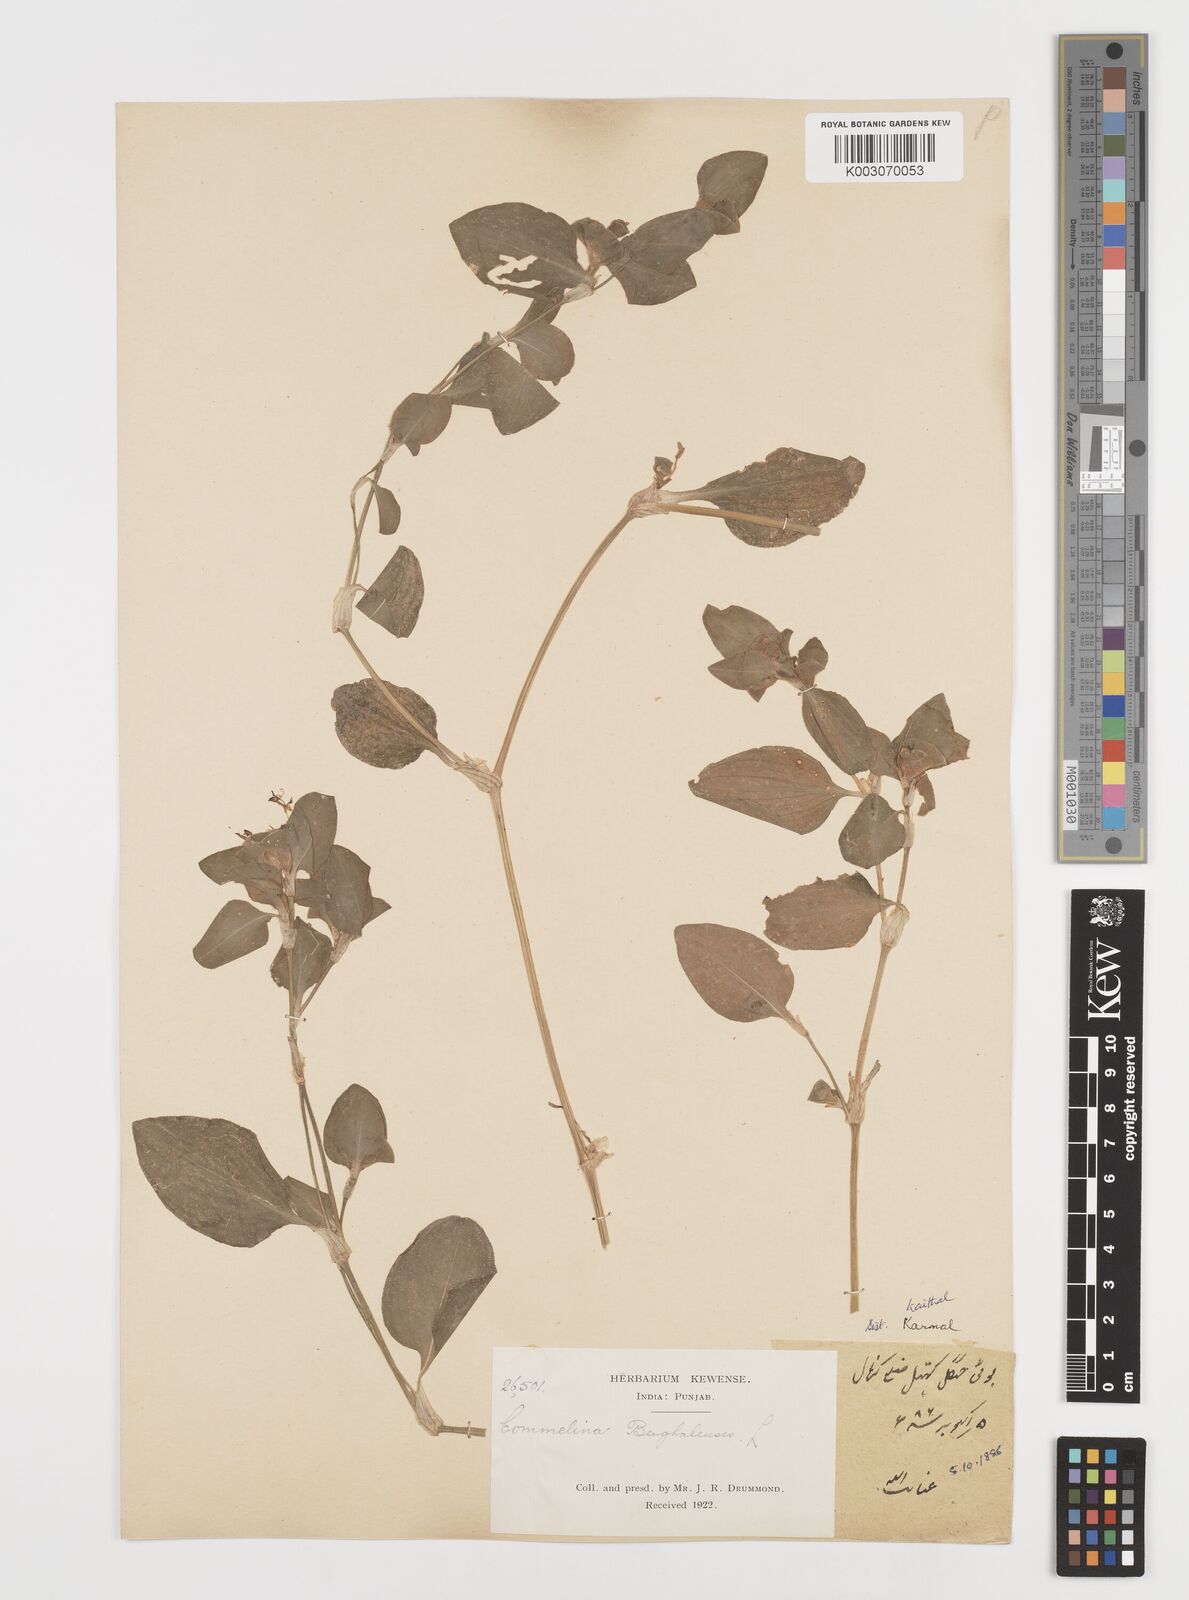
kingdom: Plantae
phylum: Tracheophyta
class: Liliopsida
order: Commelinales
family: Commelinaceae
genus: Commelina
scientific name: Commelina benghalensis
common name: Jio
